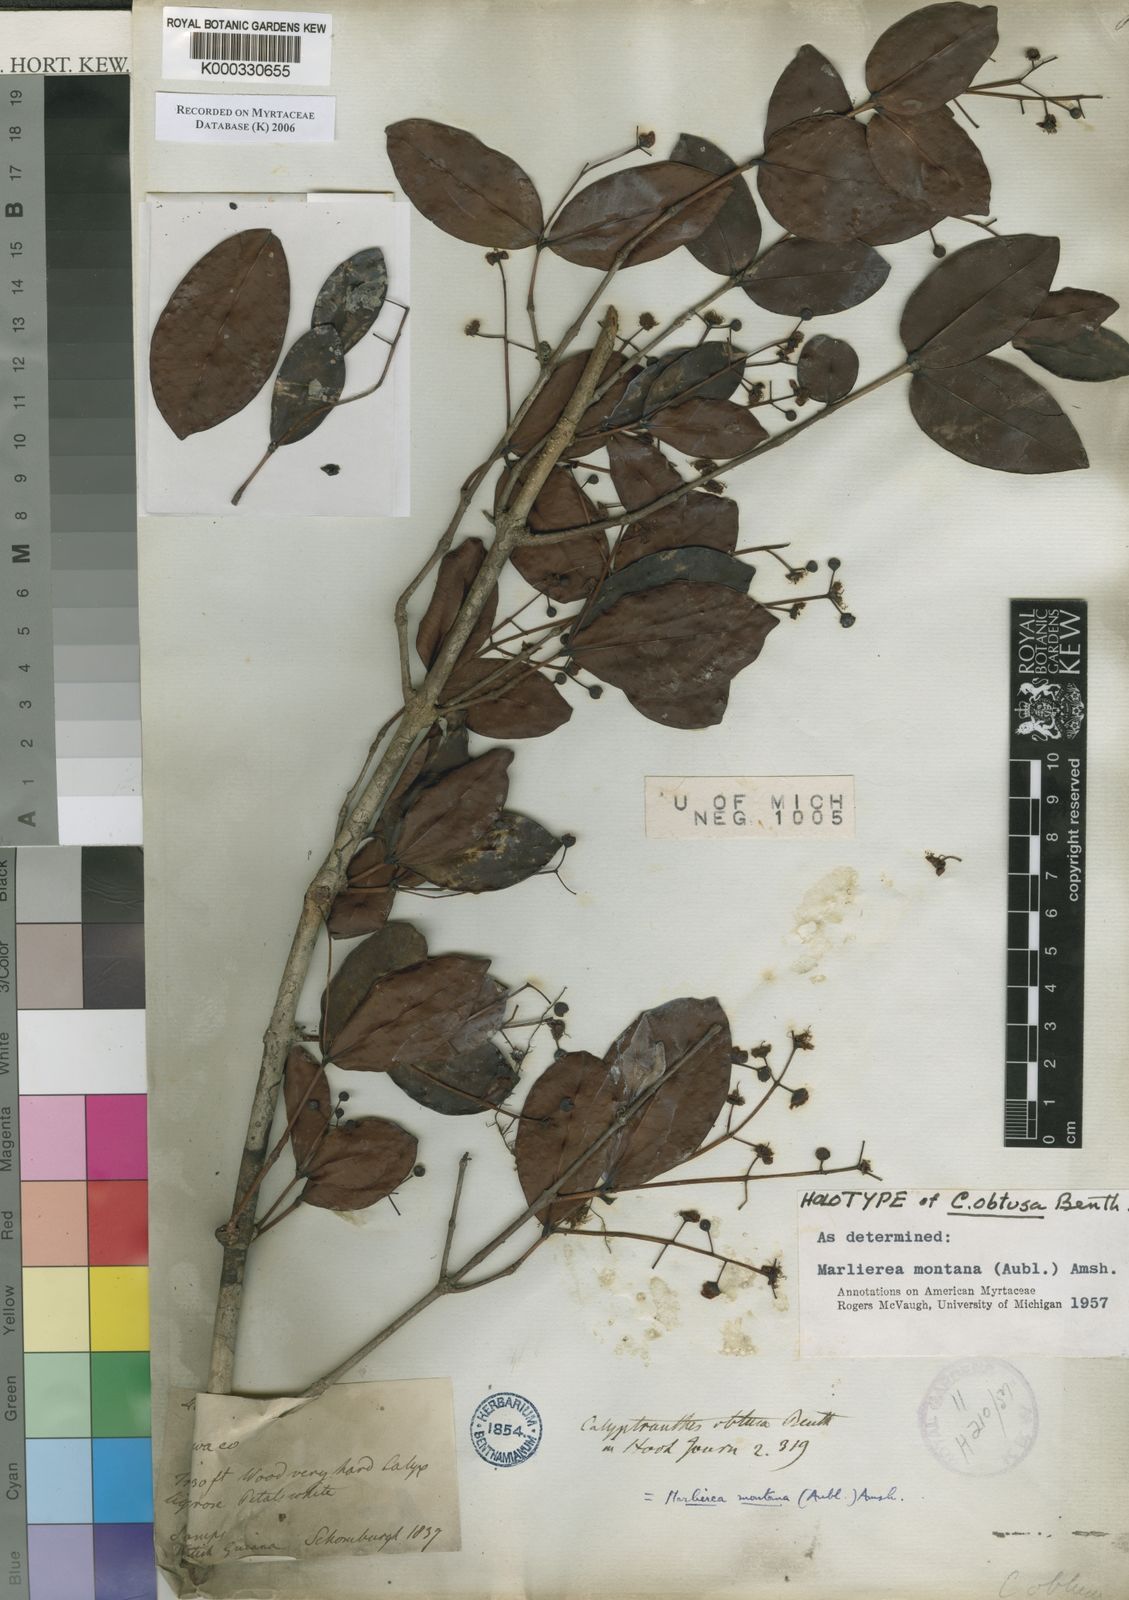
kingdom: Plantae
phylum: Tracheophyta
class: Magnoliopsida
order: Myrtales
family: Myrtaceae
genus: Myrcia
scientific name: Myrcia neomontana
